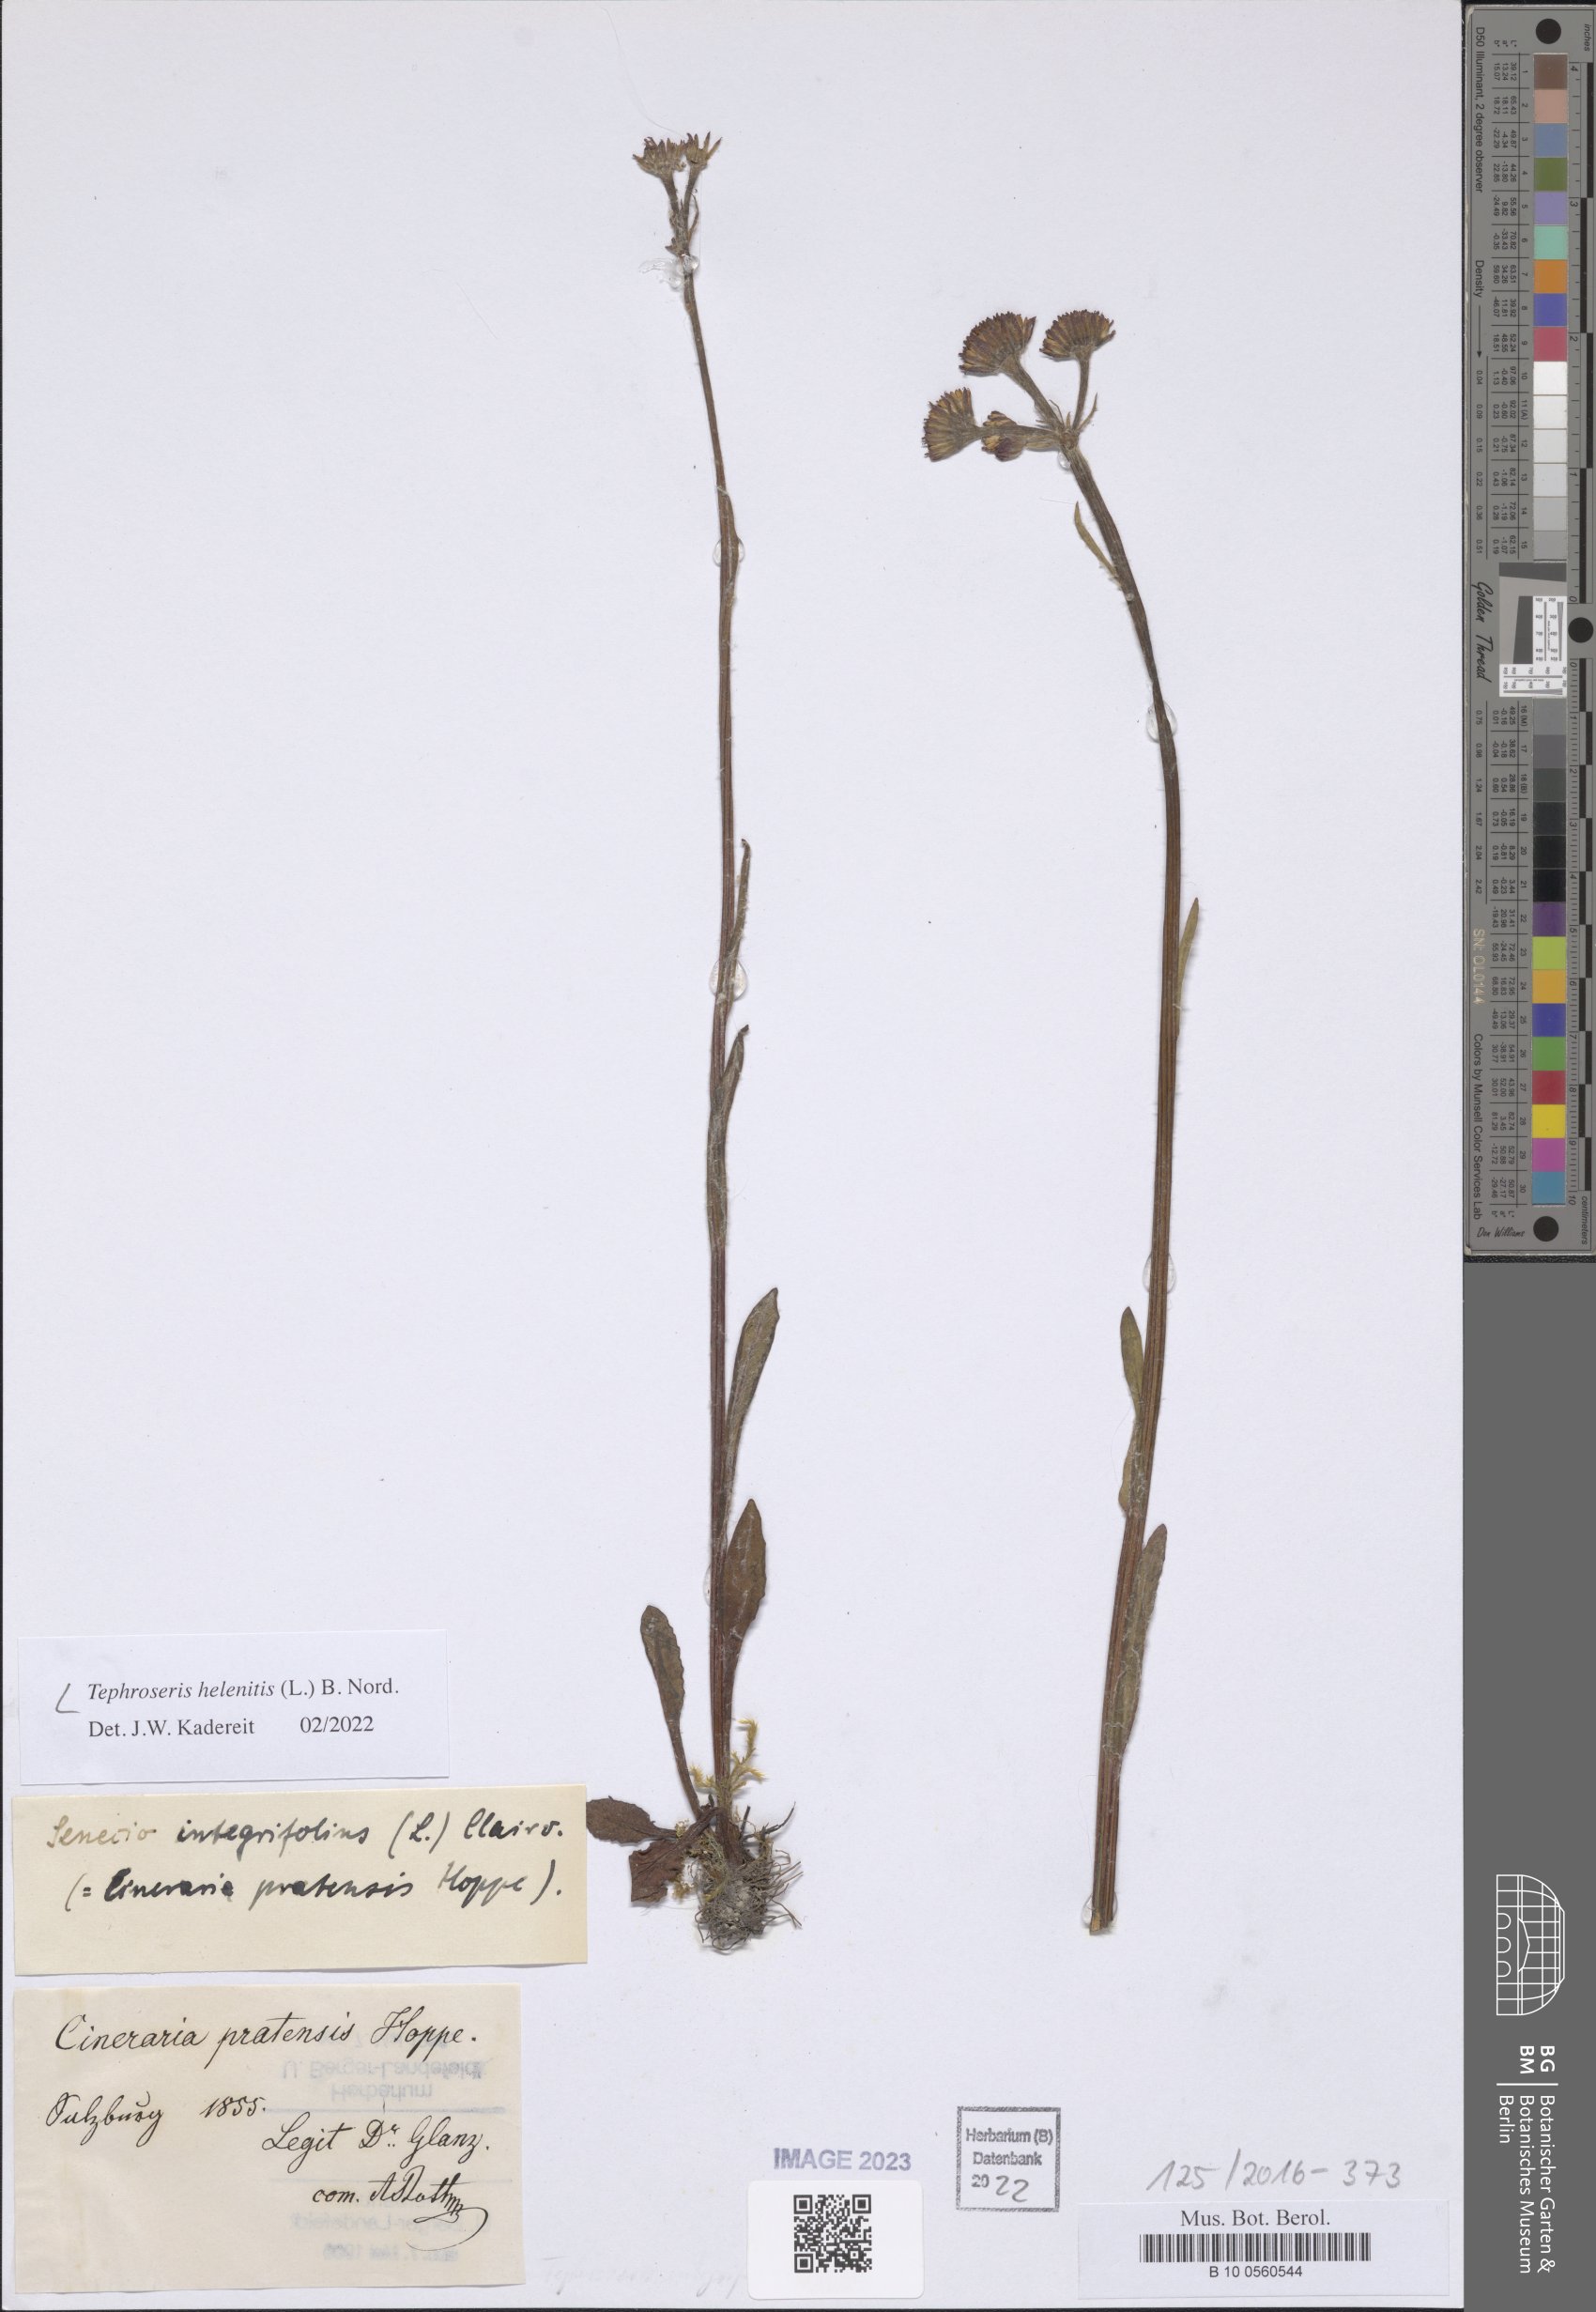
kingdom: Plantae
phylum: Tracheophyta
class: Magnoliopsida
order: Asterales
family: Asteraceae
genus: Tephroseris
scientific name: Tephroseris helenitis
